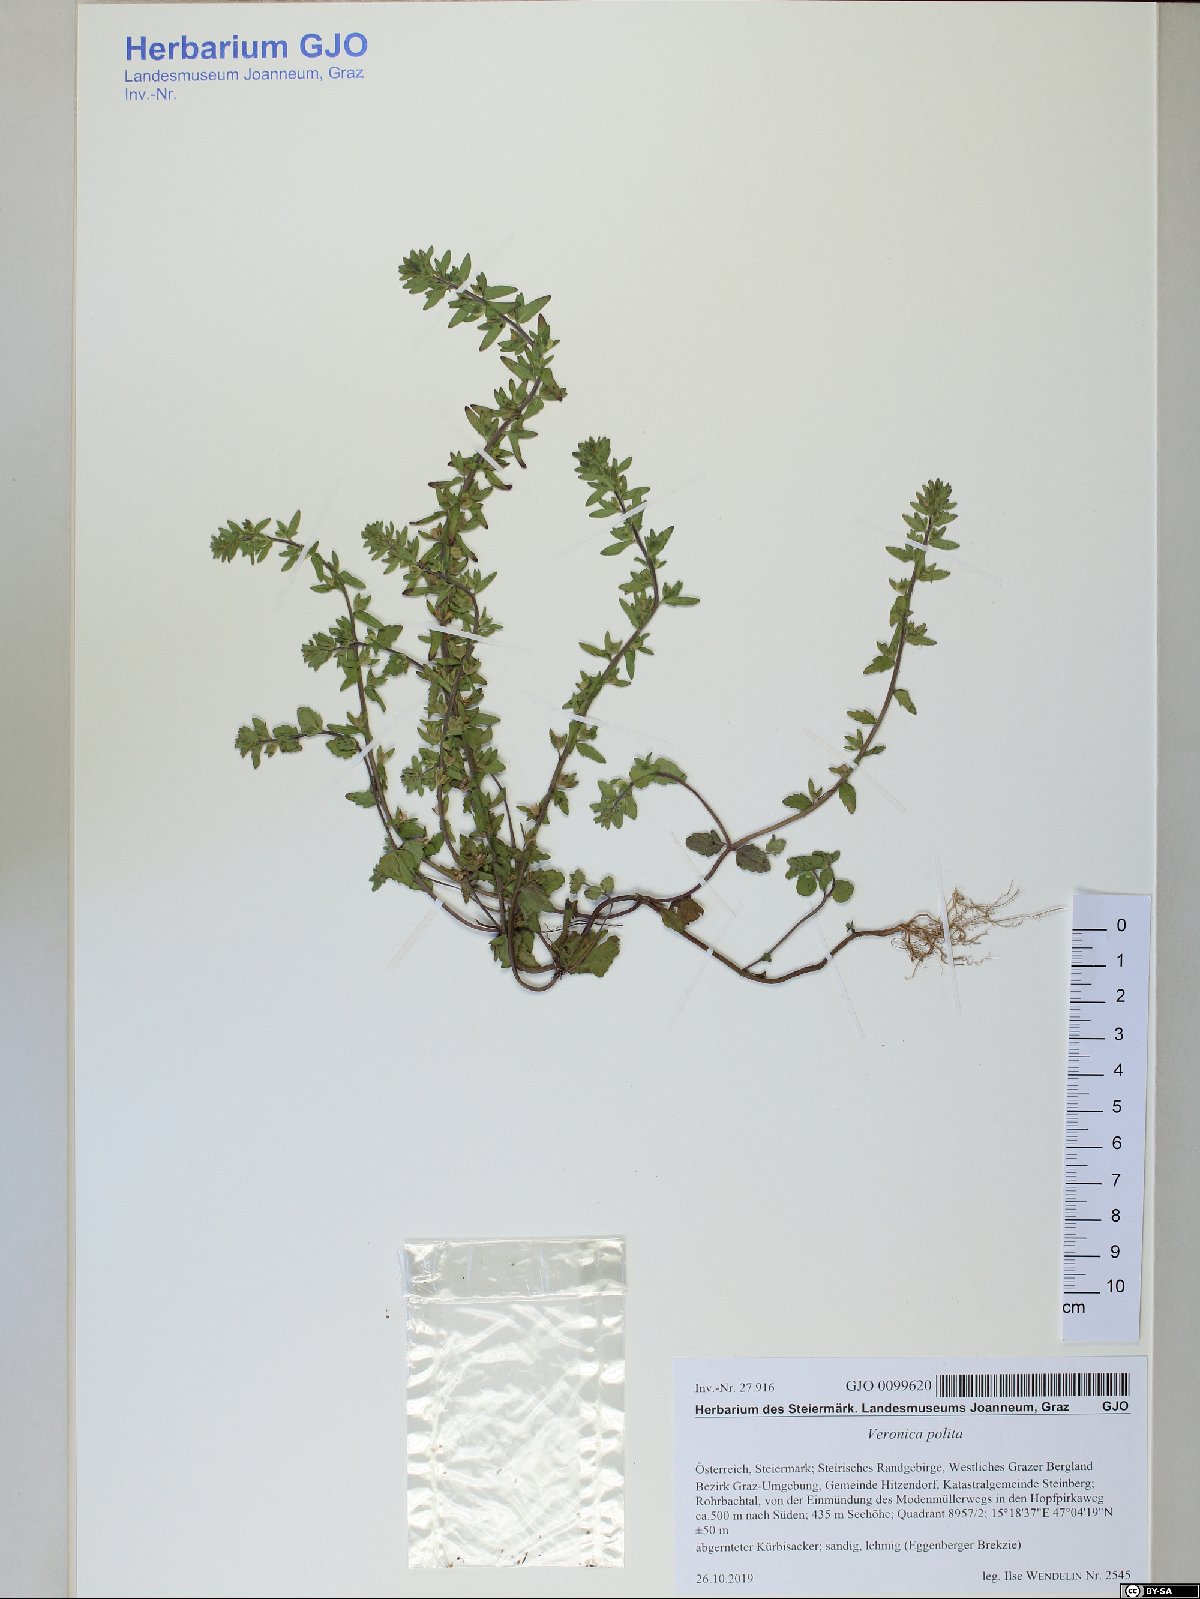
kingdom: Plantae
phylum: Tracheophyta
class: Magnoliopsida
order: Lamiales
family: Plantaginaceae
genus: Veronica
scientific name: Veronica polita
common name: Grey field-speedwell
